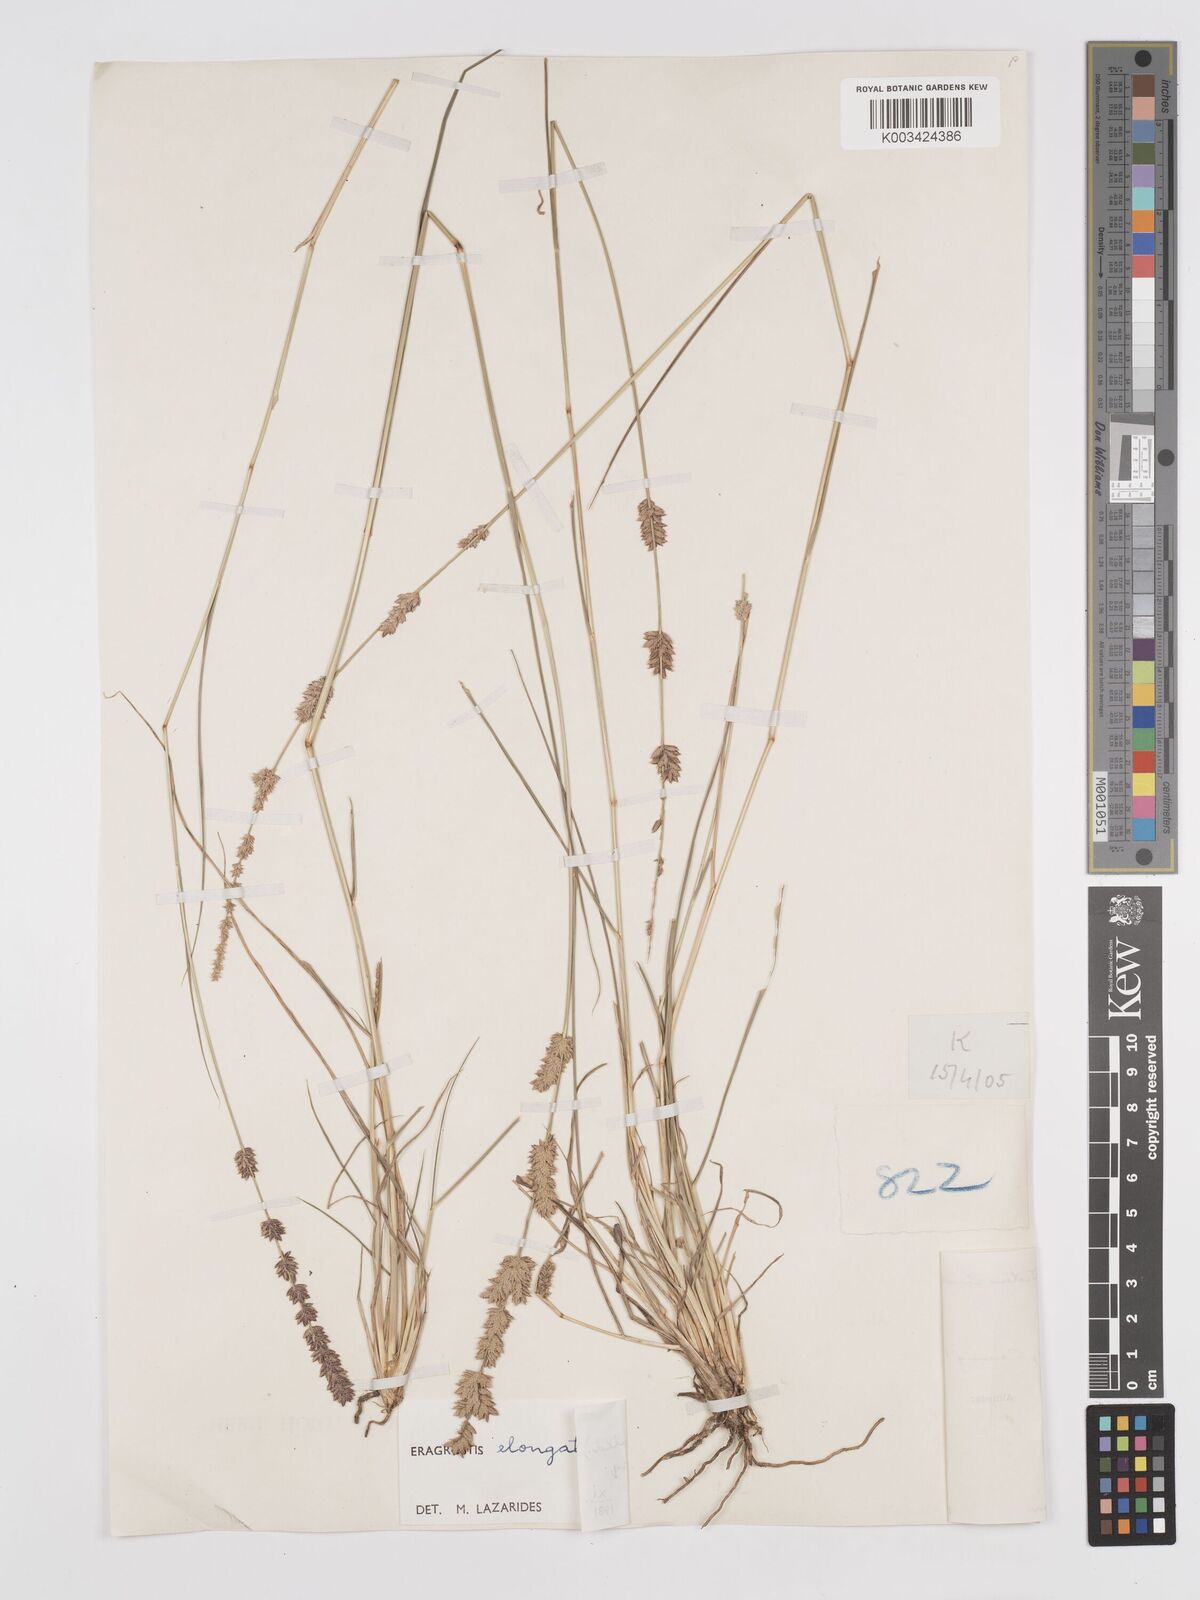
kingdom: Plantae
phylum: Tracheophyta
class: Liliopsida
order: Poales
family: Poaceae
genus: Eragrostis
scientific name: Eragrostis elongata
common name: Long lovegrass
